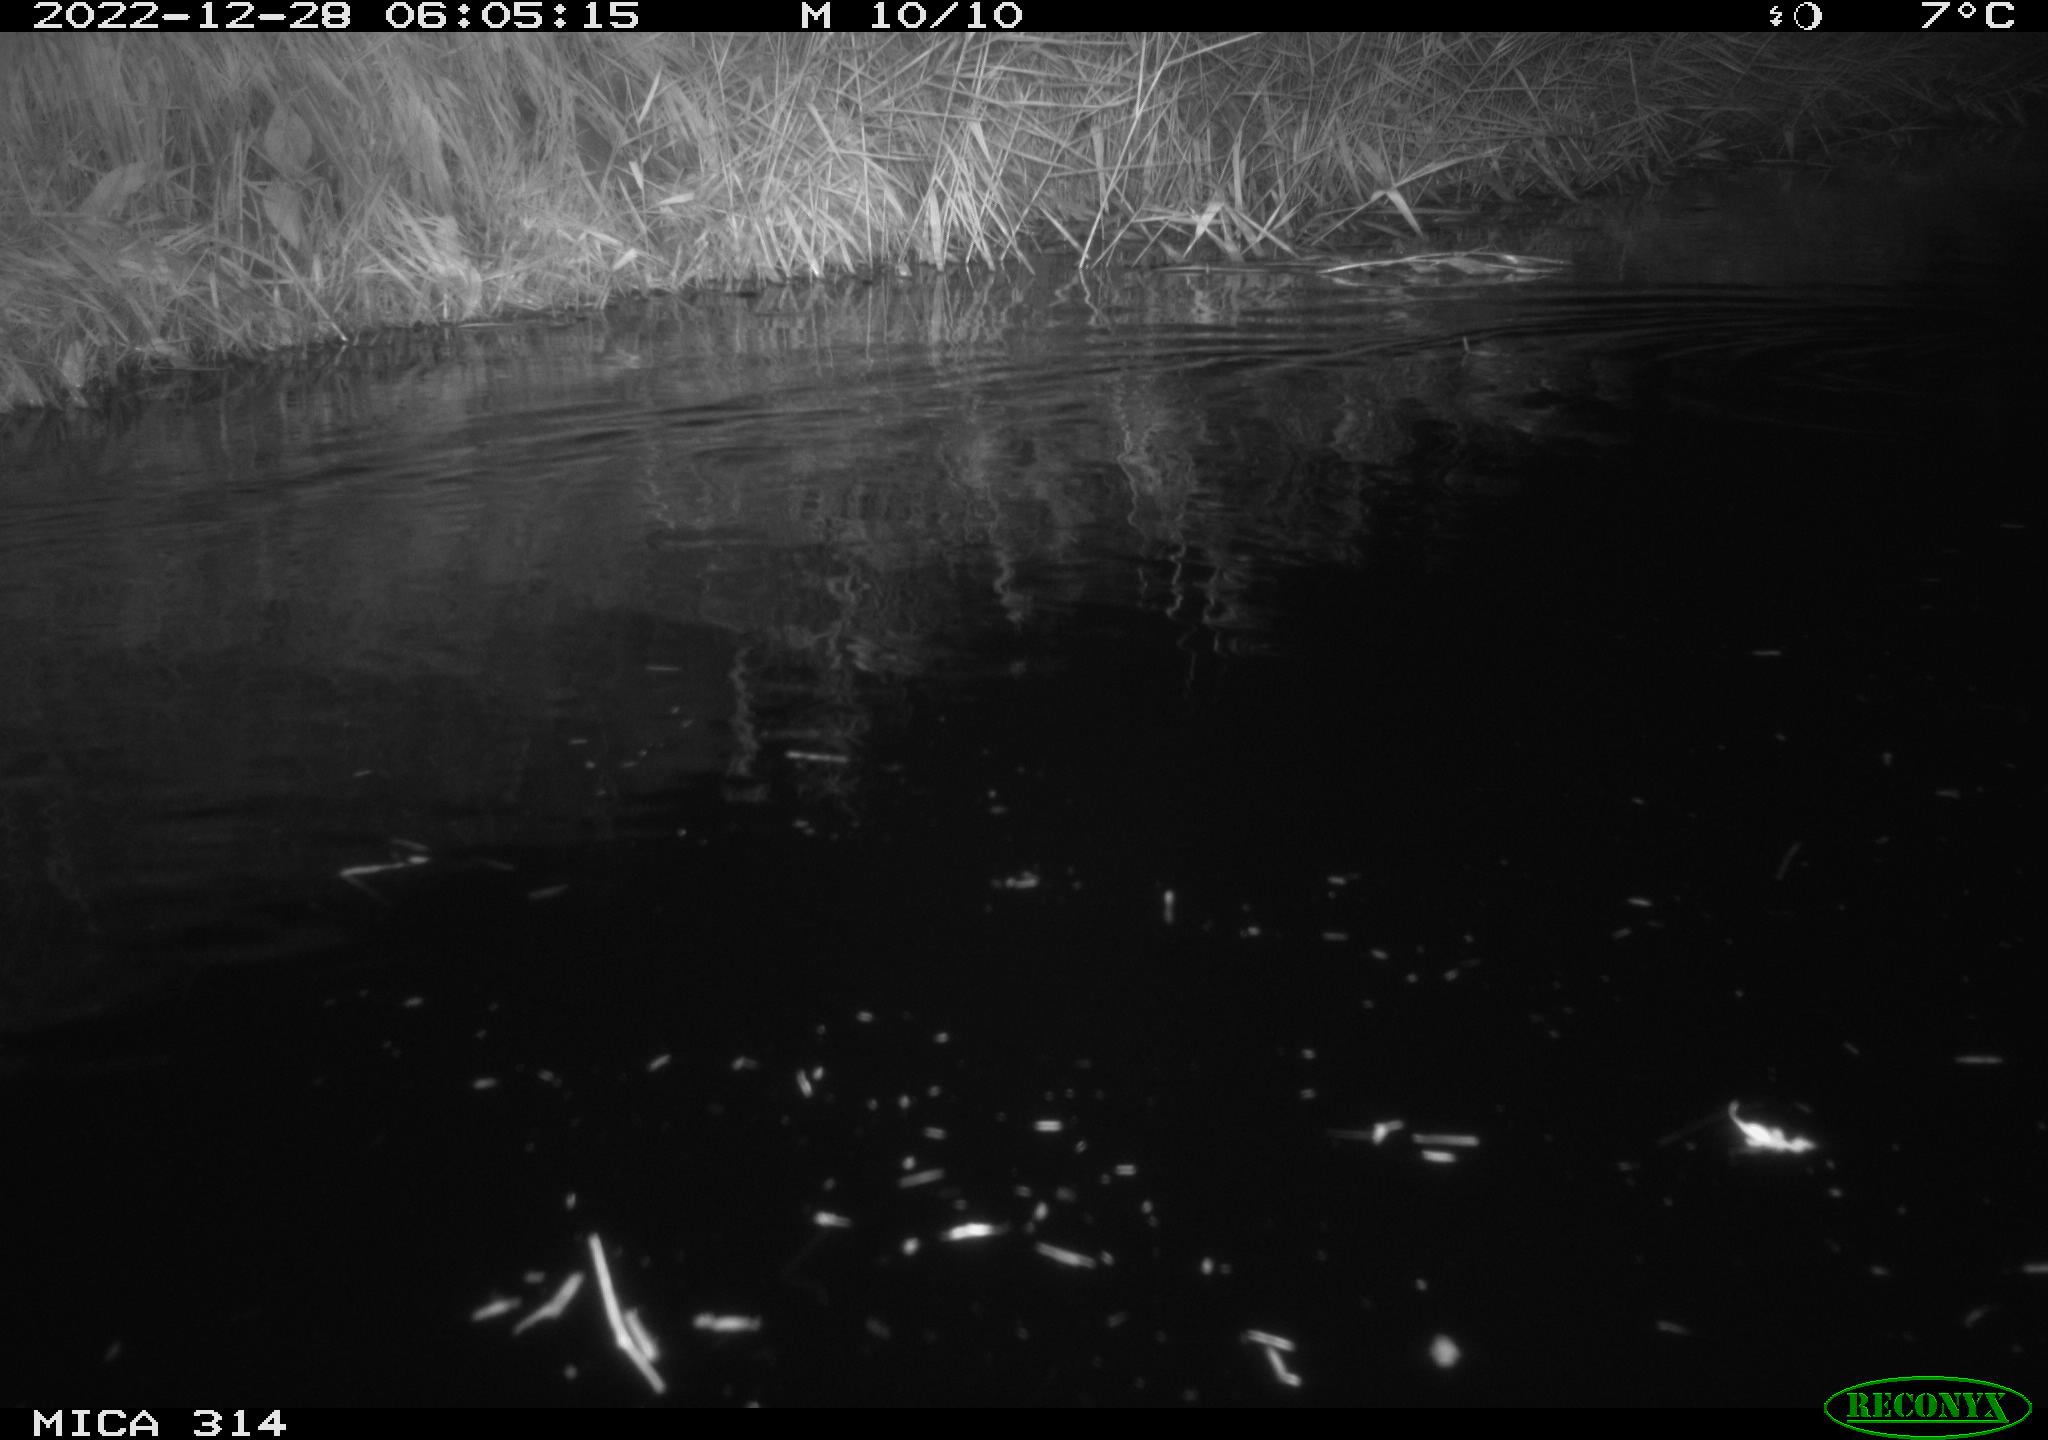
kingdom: Animalia
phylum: Chordata
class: Mammalia
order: Rodentia
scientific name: Rodentia
